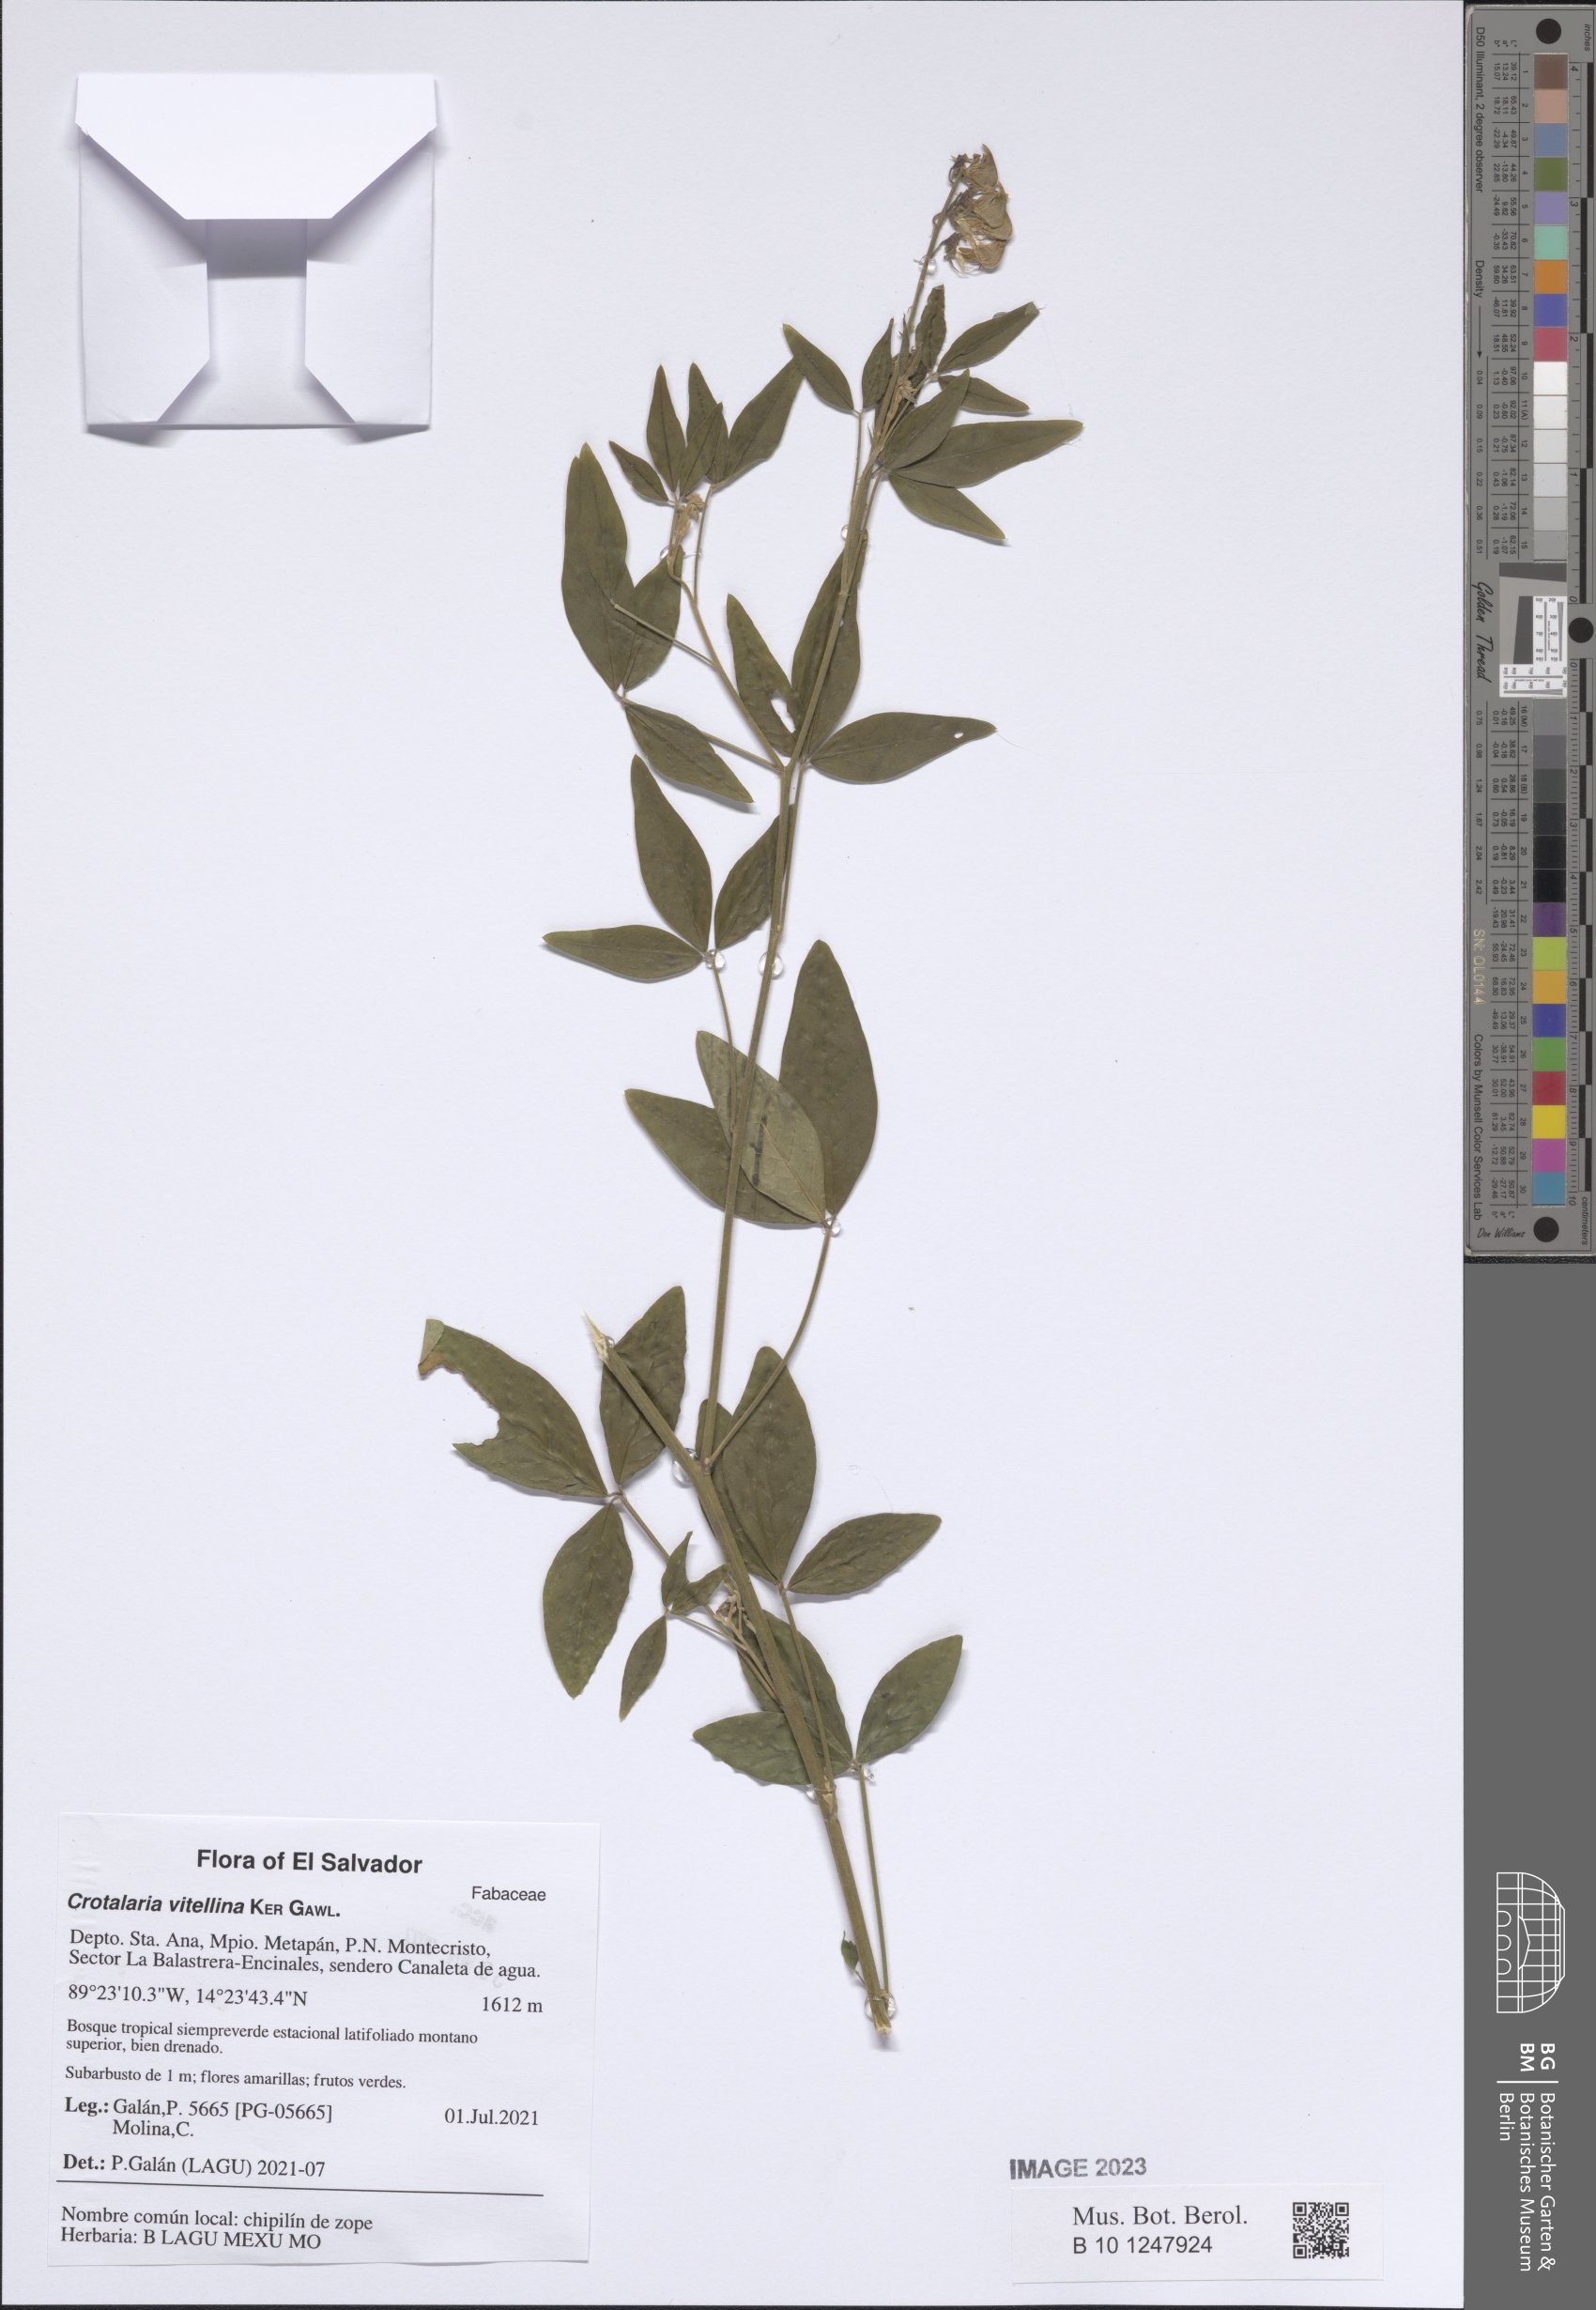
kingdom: Plantae
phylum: Tracheophyta
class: Magnoliopsida
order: Fabales
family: Fabaceae
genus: Crotalaria
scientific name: Crotalaria vitellina
